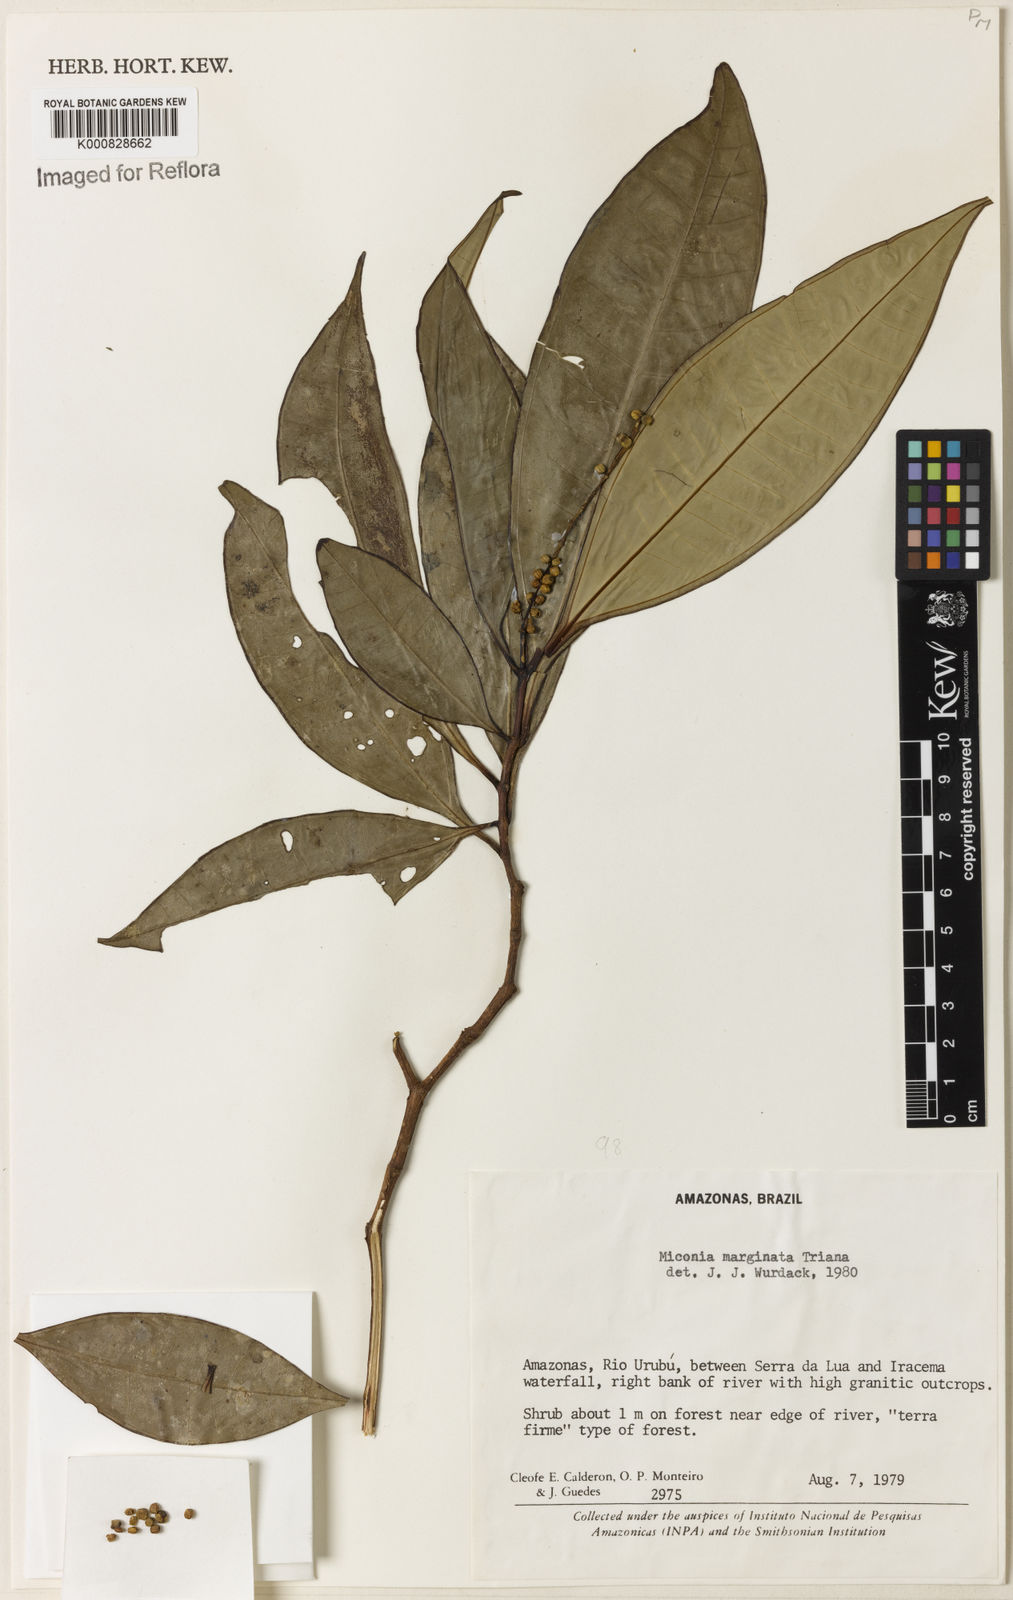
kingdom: Plantae
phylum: Tracheophyta
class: Magnoliopsida
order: Myrtales
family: Melastomataceae
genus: Miconia
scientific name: Miconia marginata
